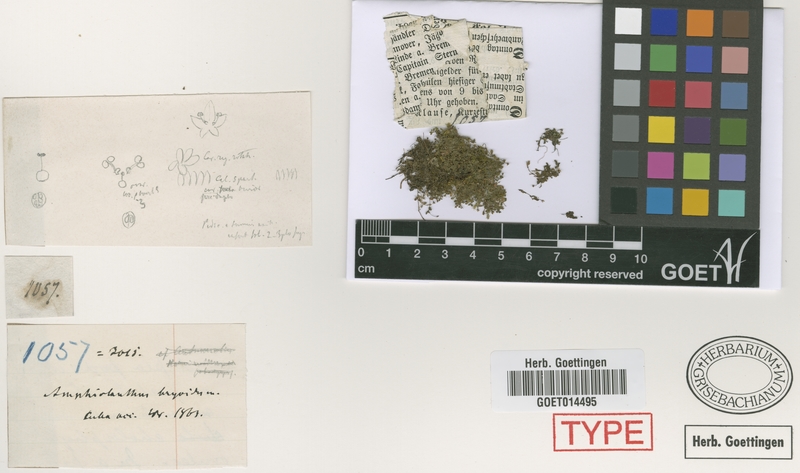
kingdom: Plantae
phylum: Tracheophyta
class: Magnoliopsida
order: Lamiales
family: Linderniaceae
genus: Micranthemum
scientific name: Micranthemum bryoides
